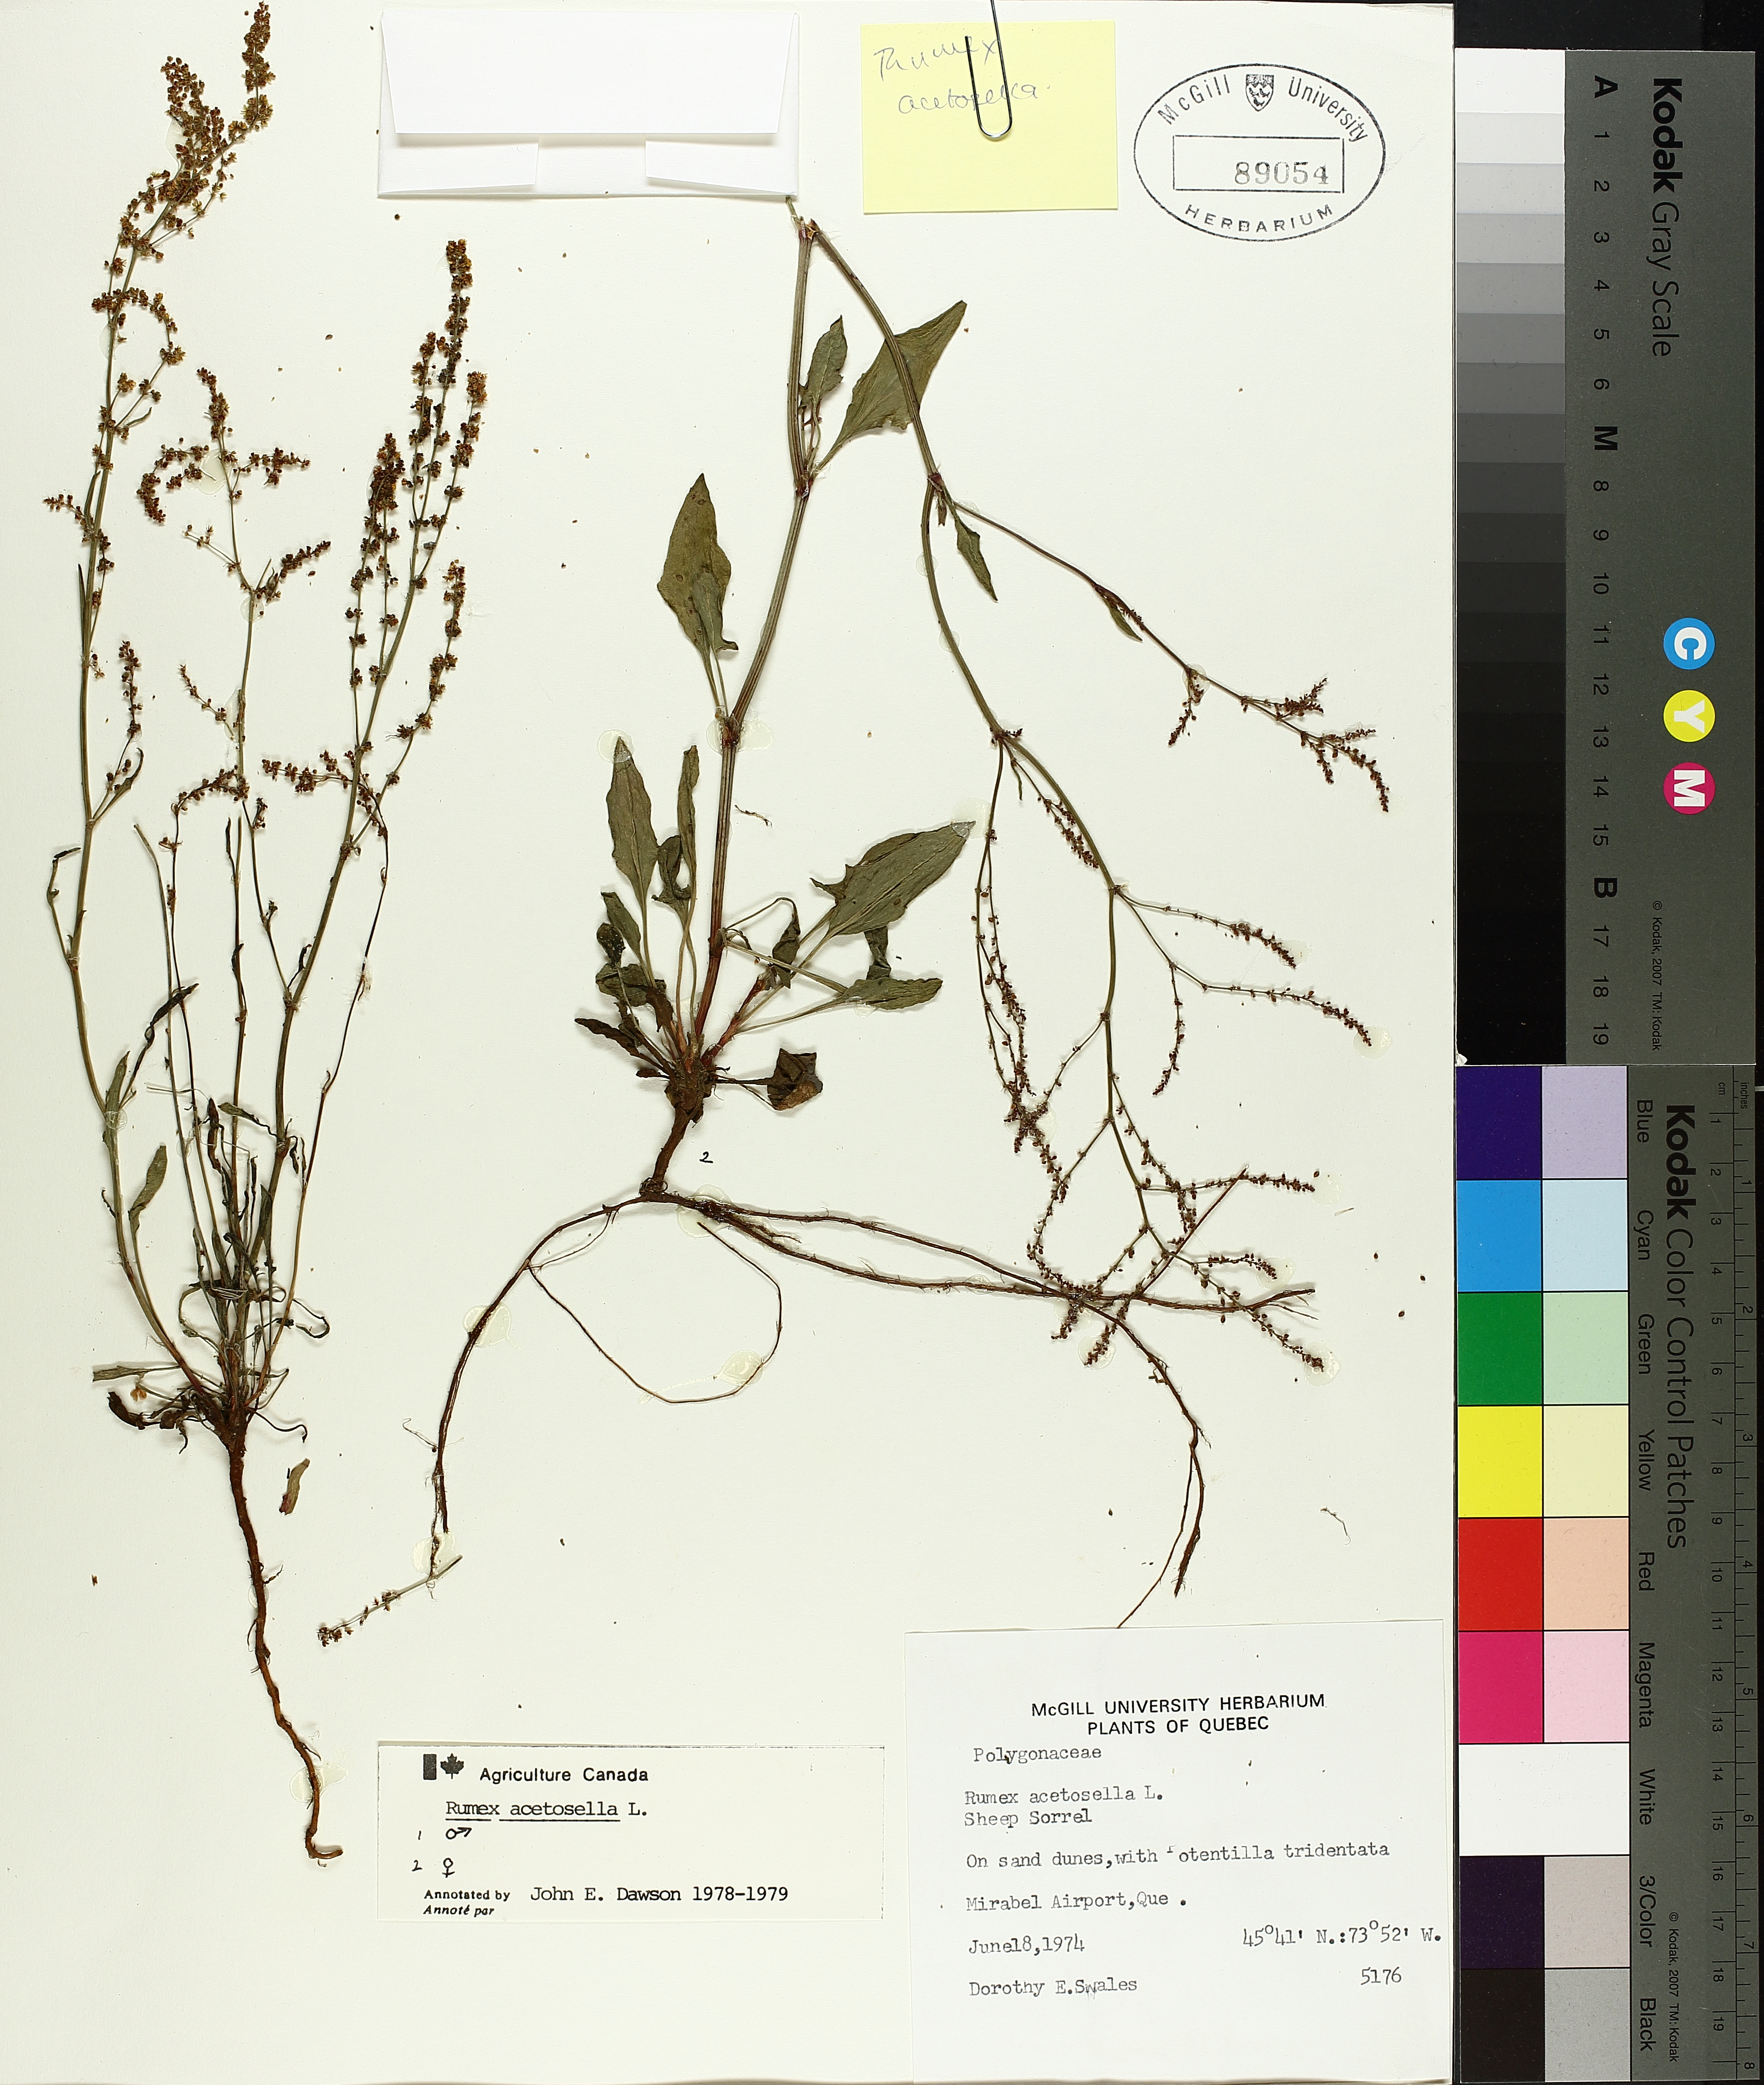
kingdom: Plantae
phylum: Tracheophyta
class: Magnoliopsida
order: Caryophyllales
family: Polygonaceae
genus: Rumex
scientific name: Rumex acetosella
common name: Common sheep sorrel
